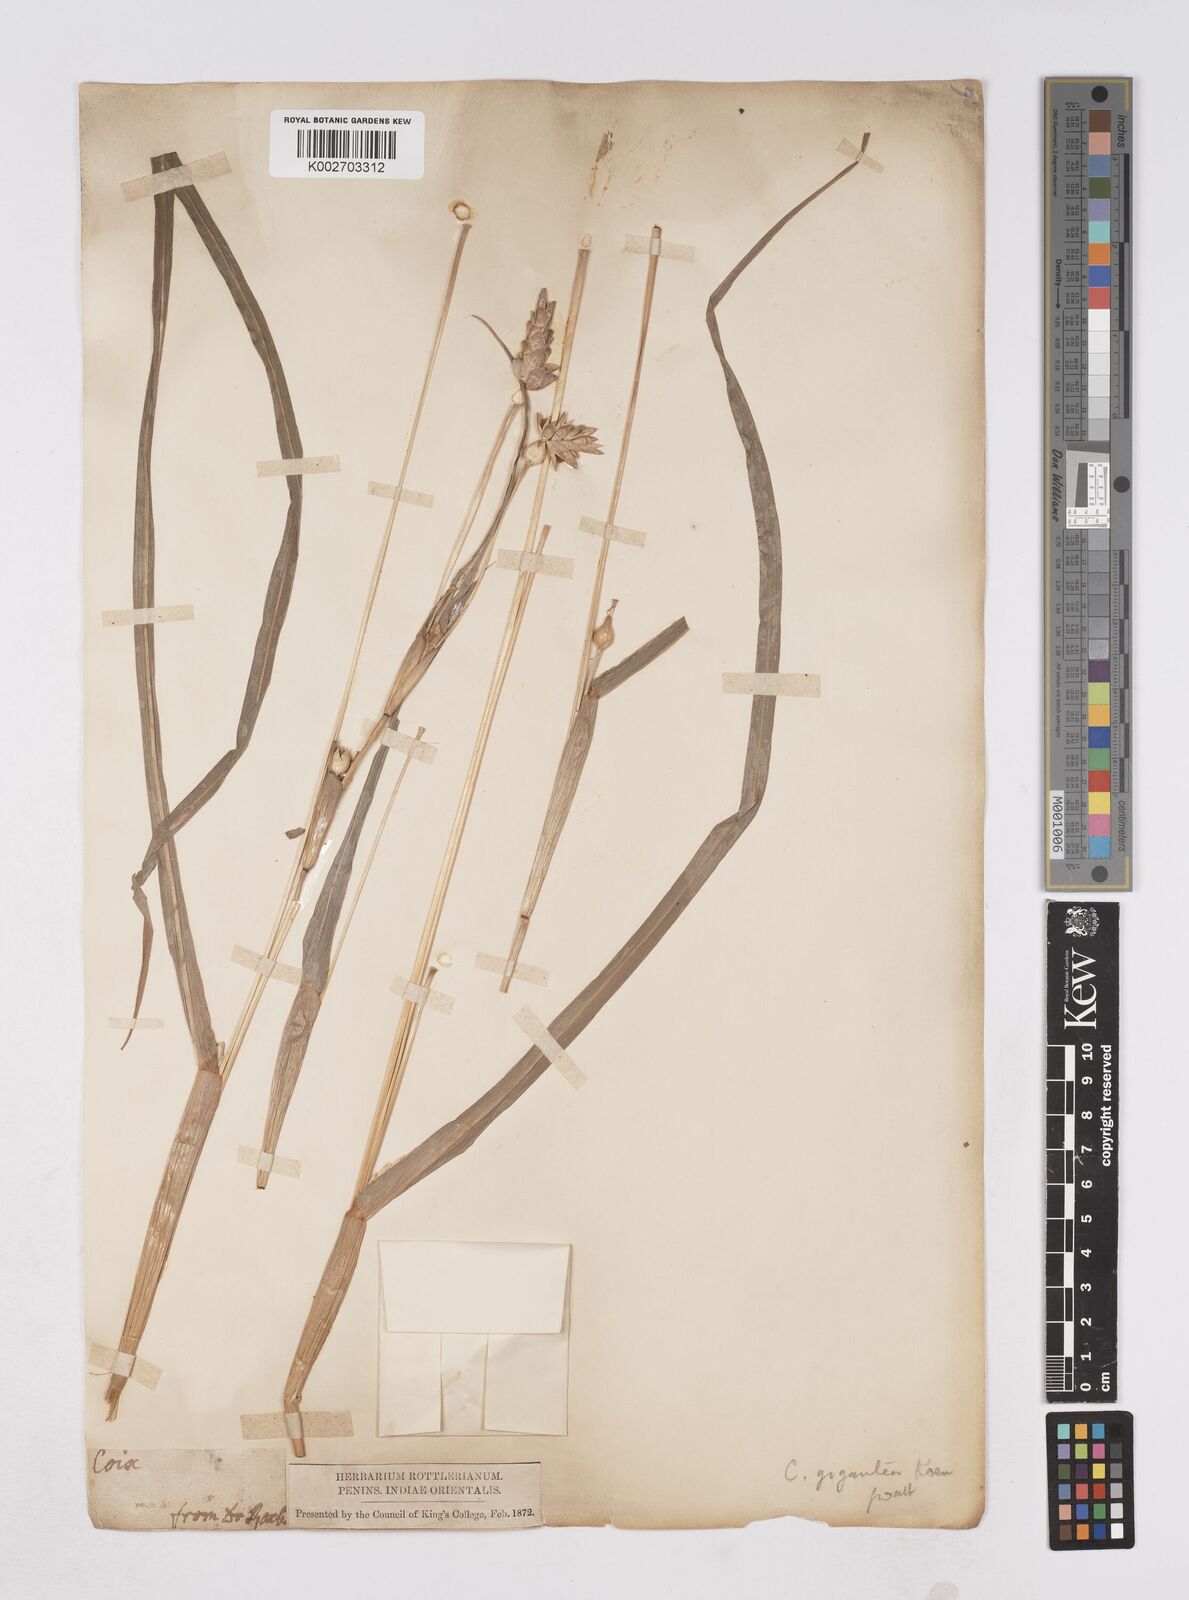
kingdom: Plantae
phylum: Tracheophyta
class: Liliopsida
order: Poales
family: Poaceae
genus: Coix
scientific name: Coix aquatica
